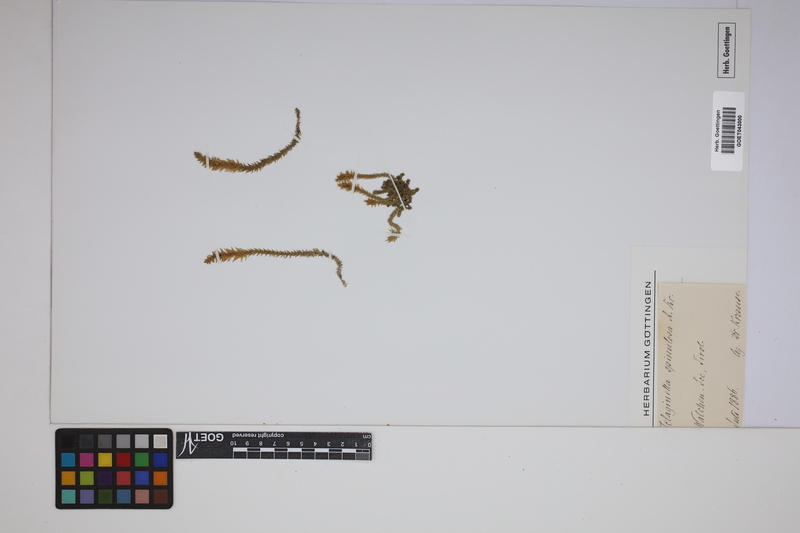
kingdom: Plantae
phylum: Tracheophyta
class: Lycopodiopsida
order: Selaginellales
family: Selaginellaceae
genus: Selaginella
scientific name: Selaginella selaginoides
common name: Prickly mountain-moss
